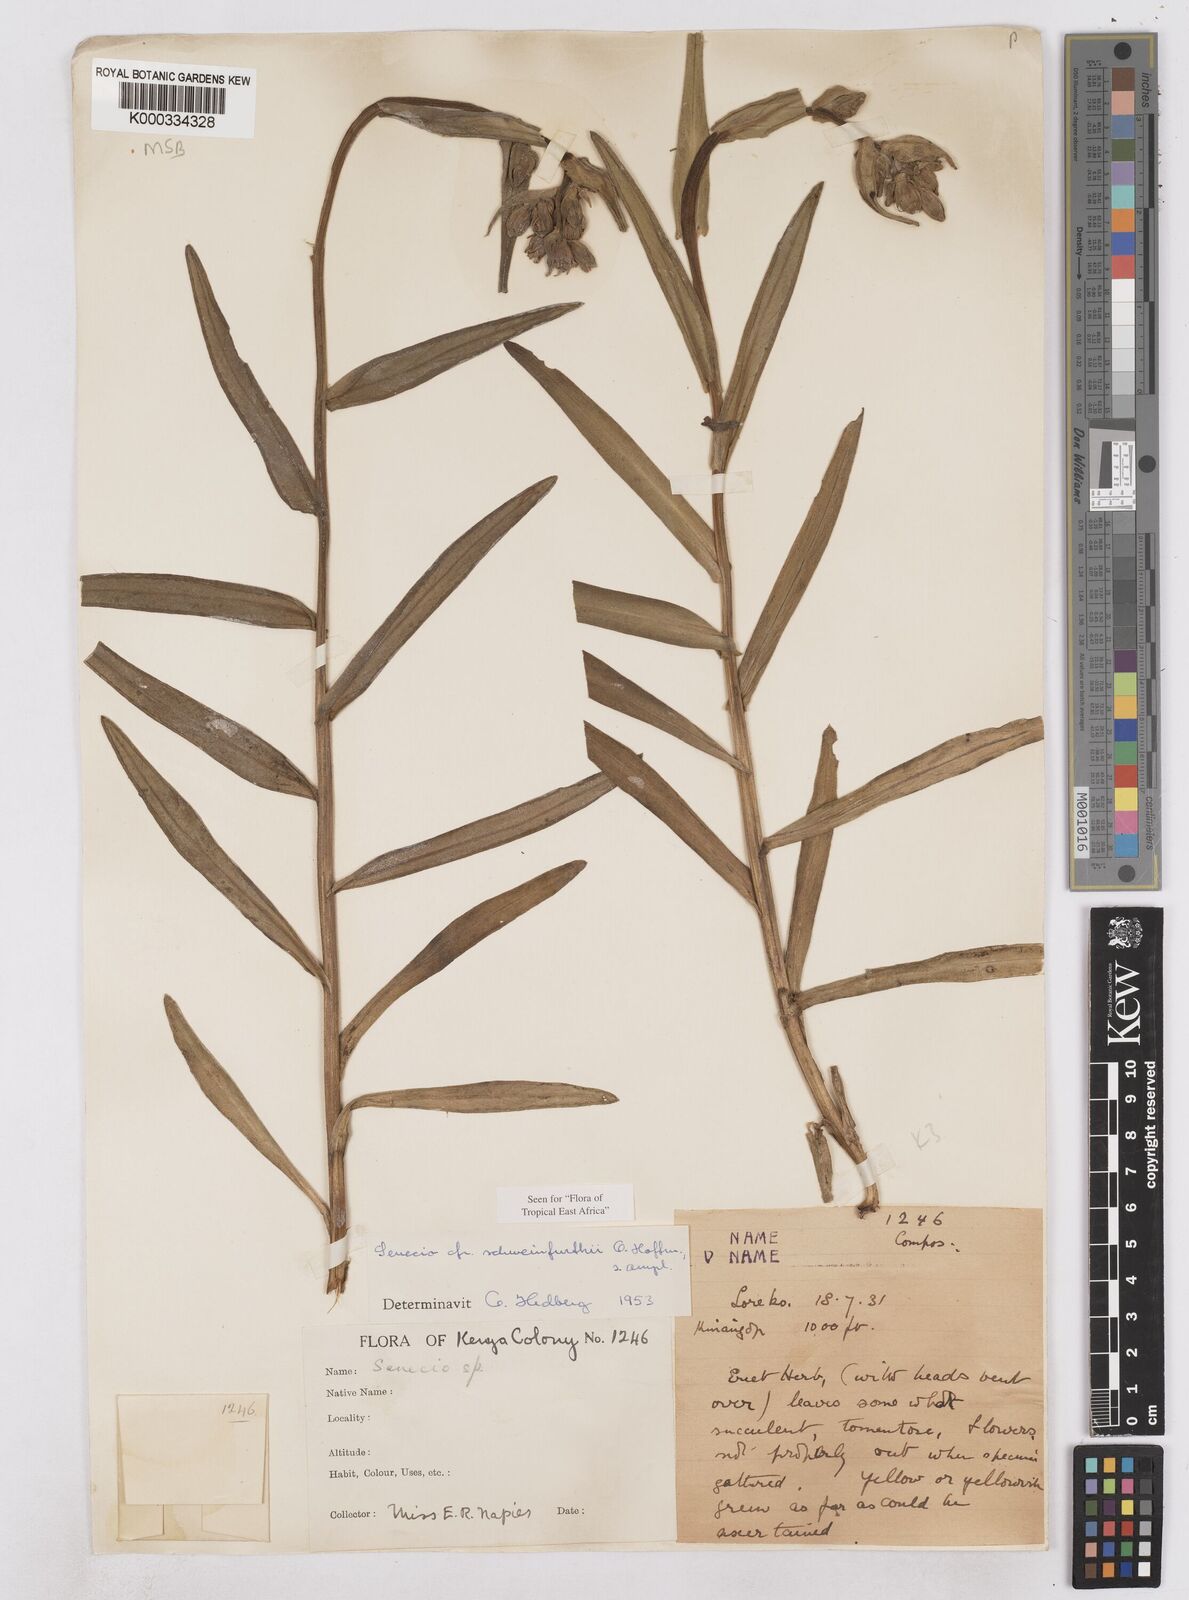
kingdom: Plantae
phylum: Tracheophyta
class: Magnoliopsida
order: Asterales
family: Asteraceae
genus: Senecio
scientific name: Senecio schweinfurthii
